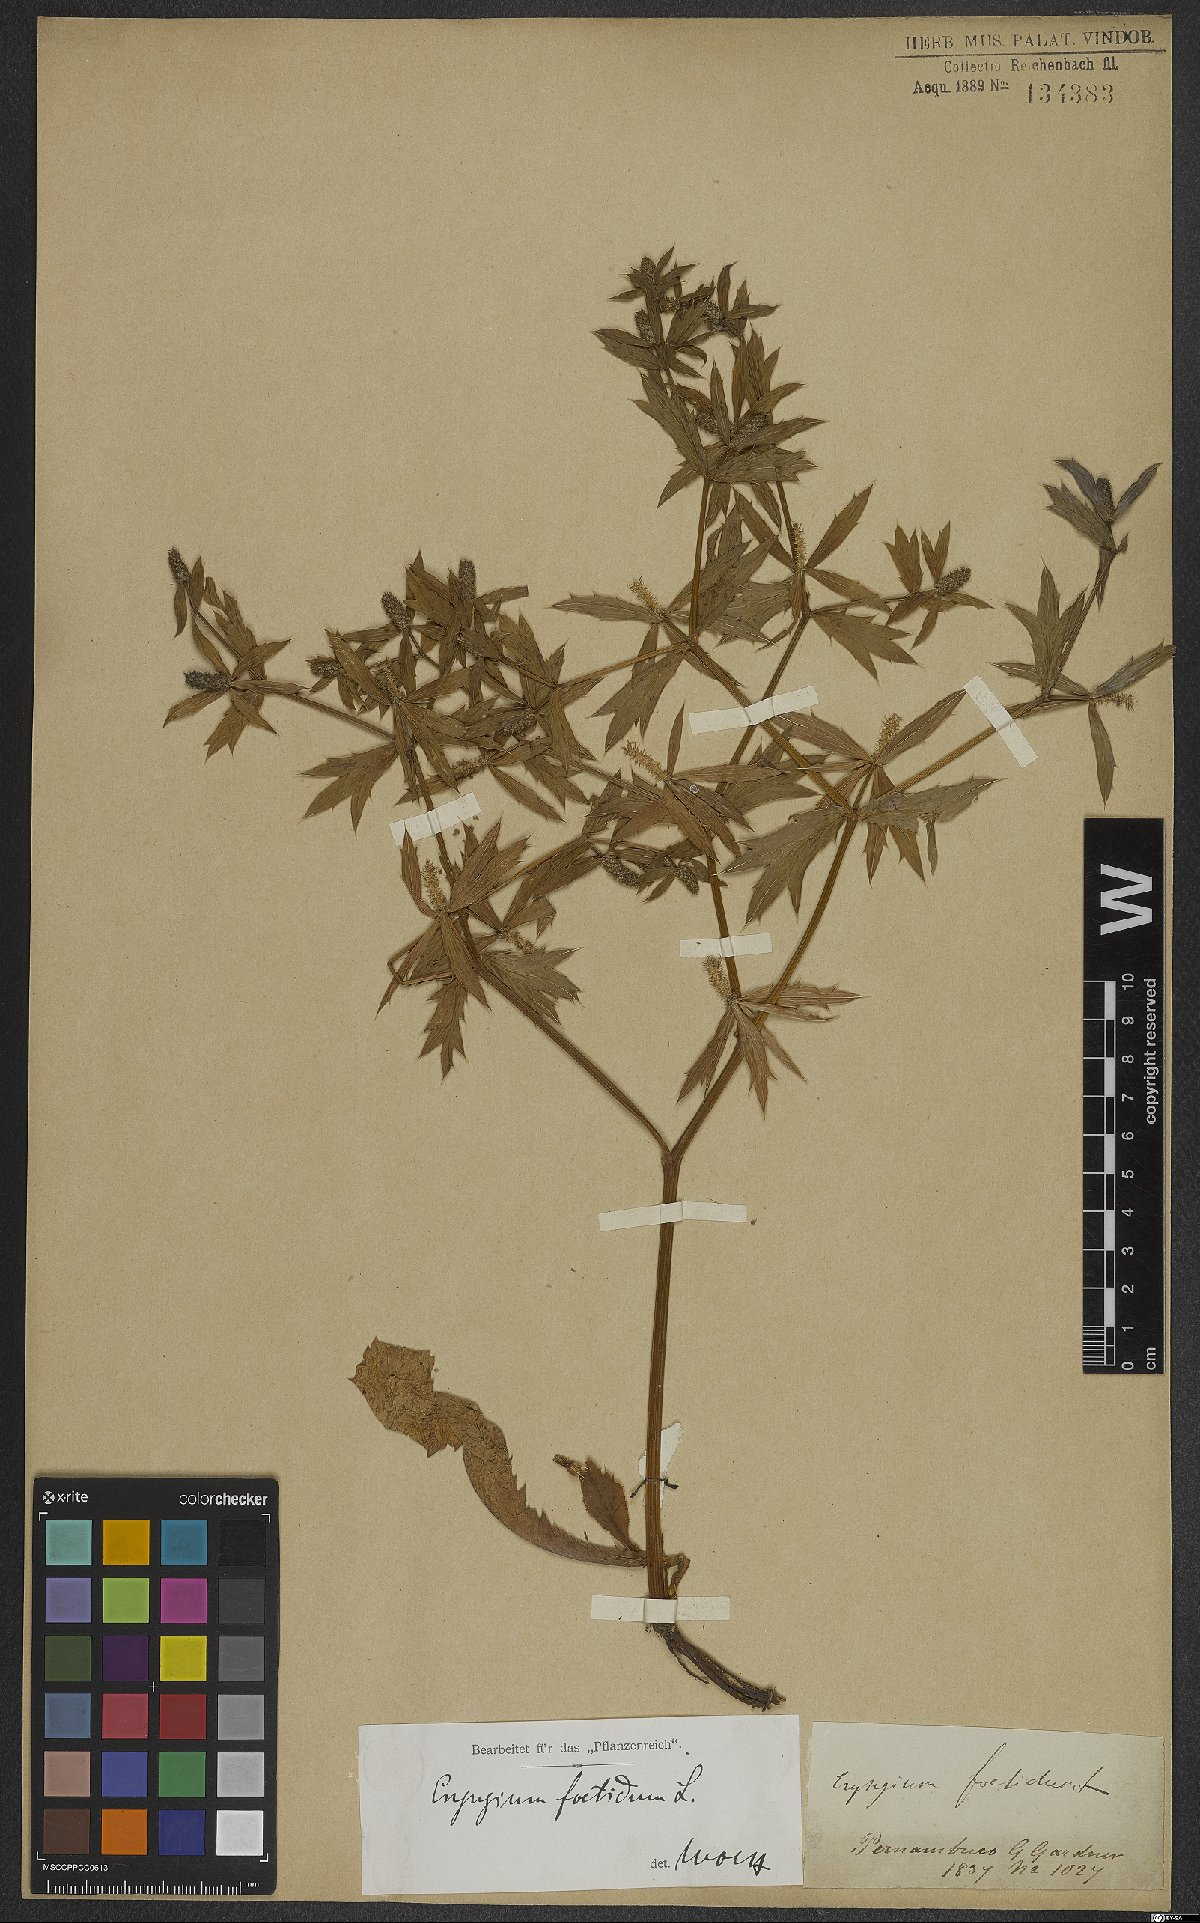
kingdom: Plantae
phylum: Tracheophyta
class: Magnoliopsida
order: Apiales
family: Apiaceae
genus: Eryngium
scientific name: Eryngium foetidum
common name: Fitweed
